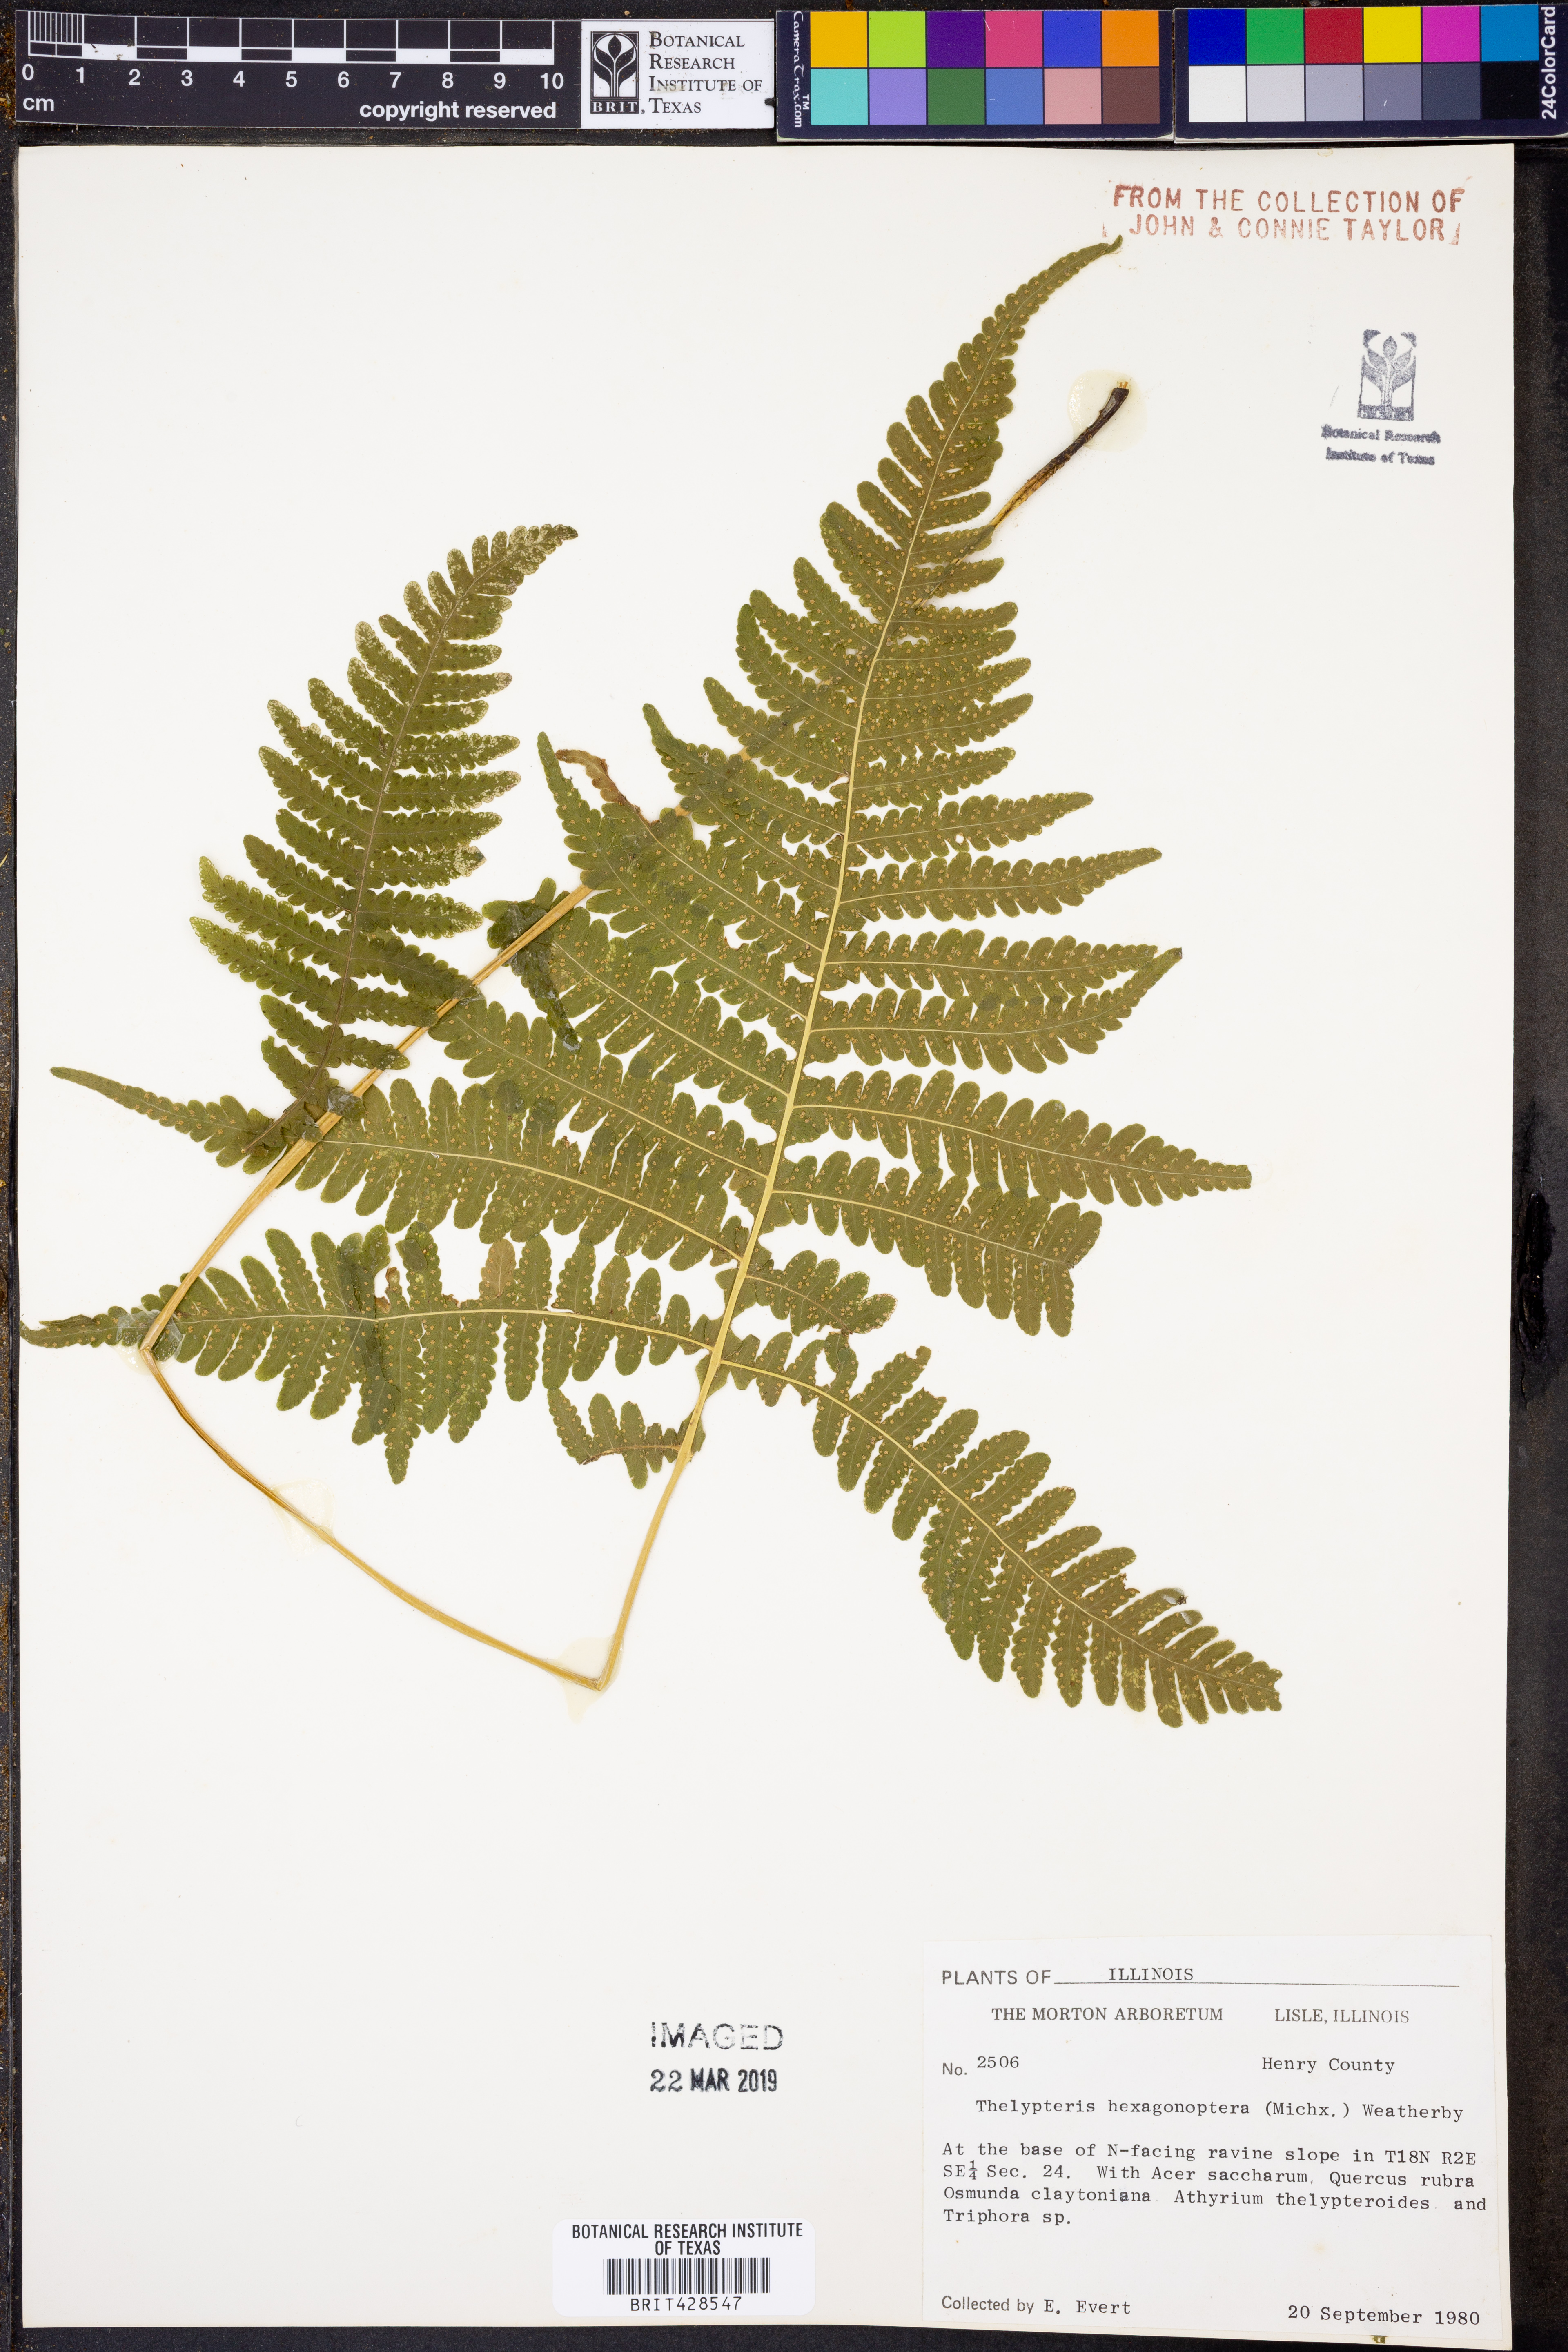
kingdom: Plantae
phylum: Tracheophyta
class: Polypodiopsida
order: Polypodiales
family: Thelypteridaceae
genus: Phegopteris
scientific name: Phegopteris hexagonoptera
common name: Broad beech fern
